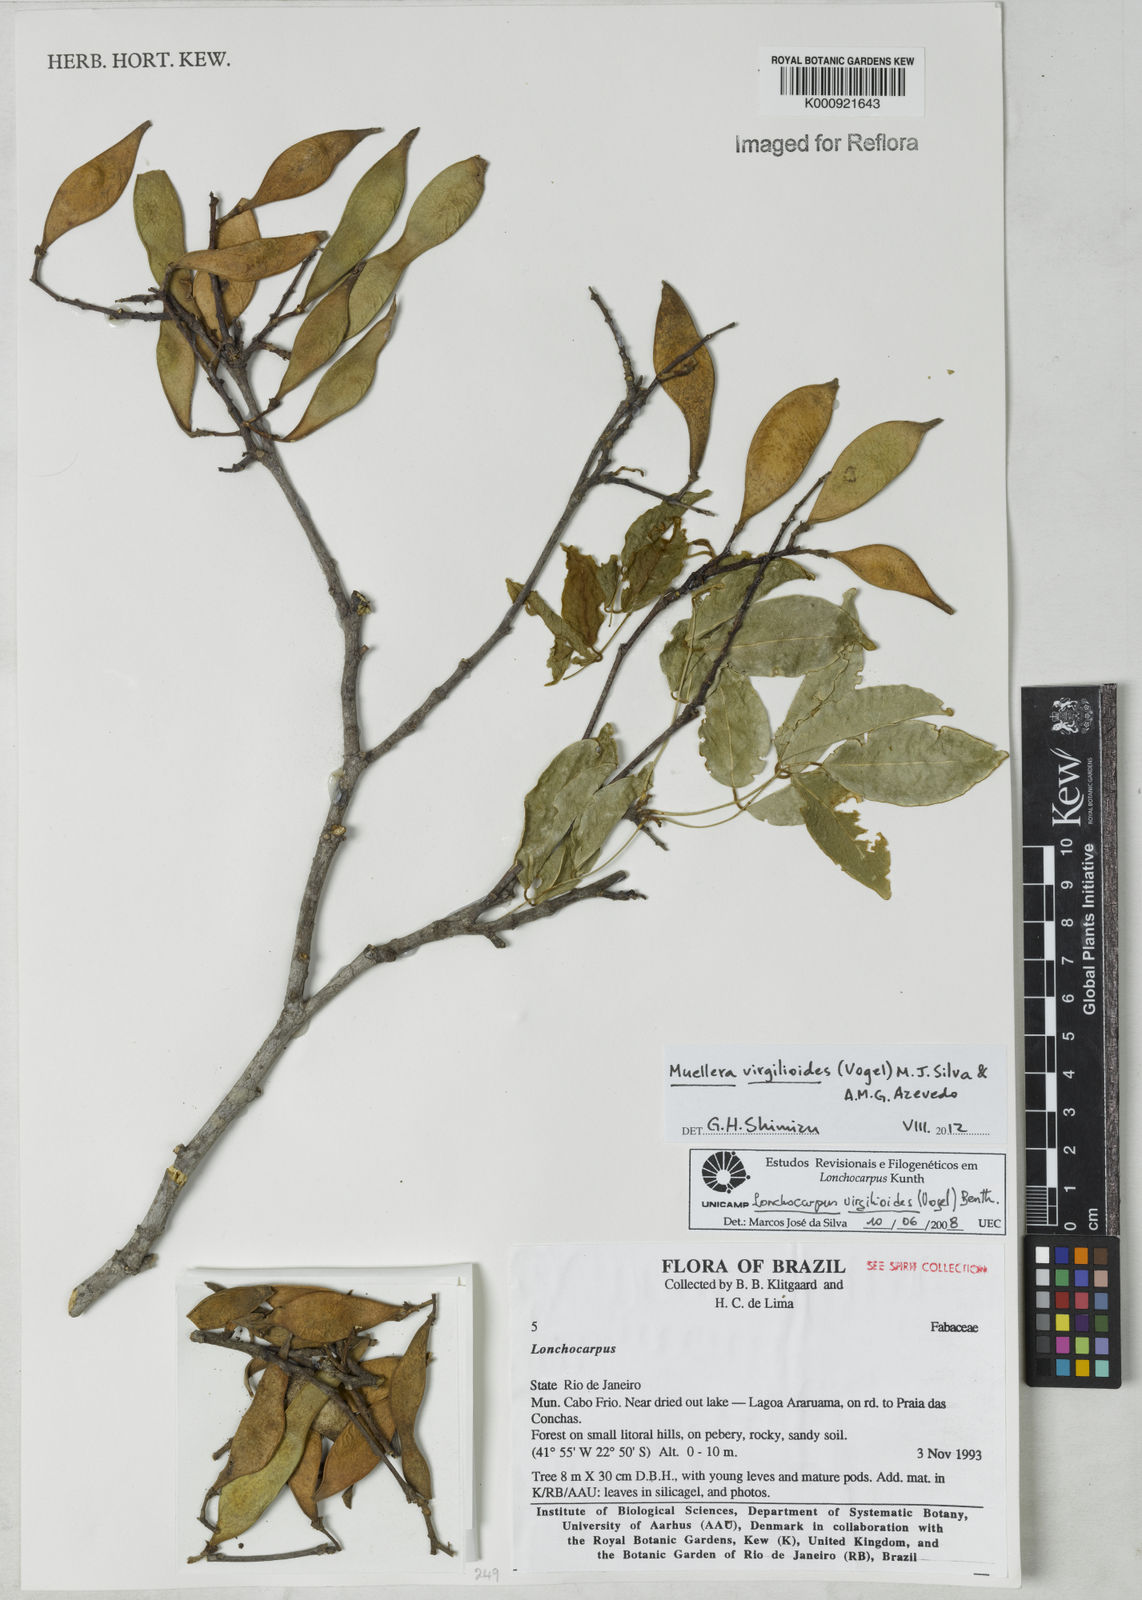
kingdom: Plantae
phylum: Tracheophyta
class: Magnoliopsida
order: Fabales
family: Fabaceae
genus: Muellera
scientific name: Muellera virgilioides
